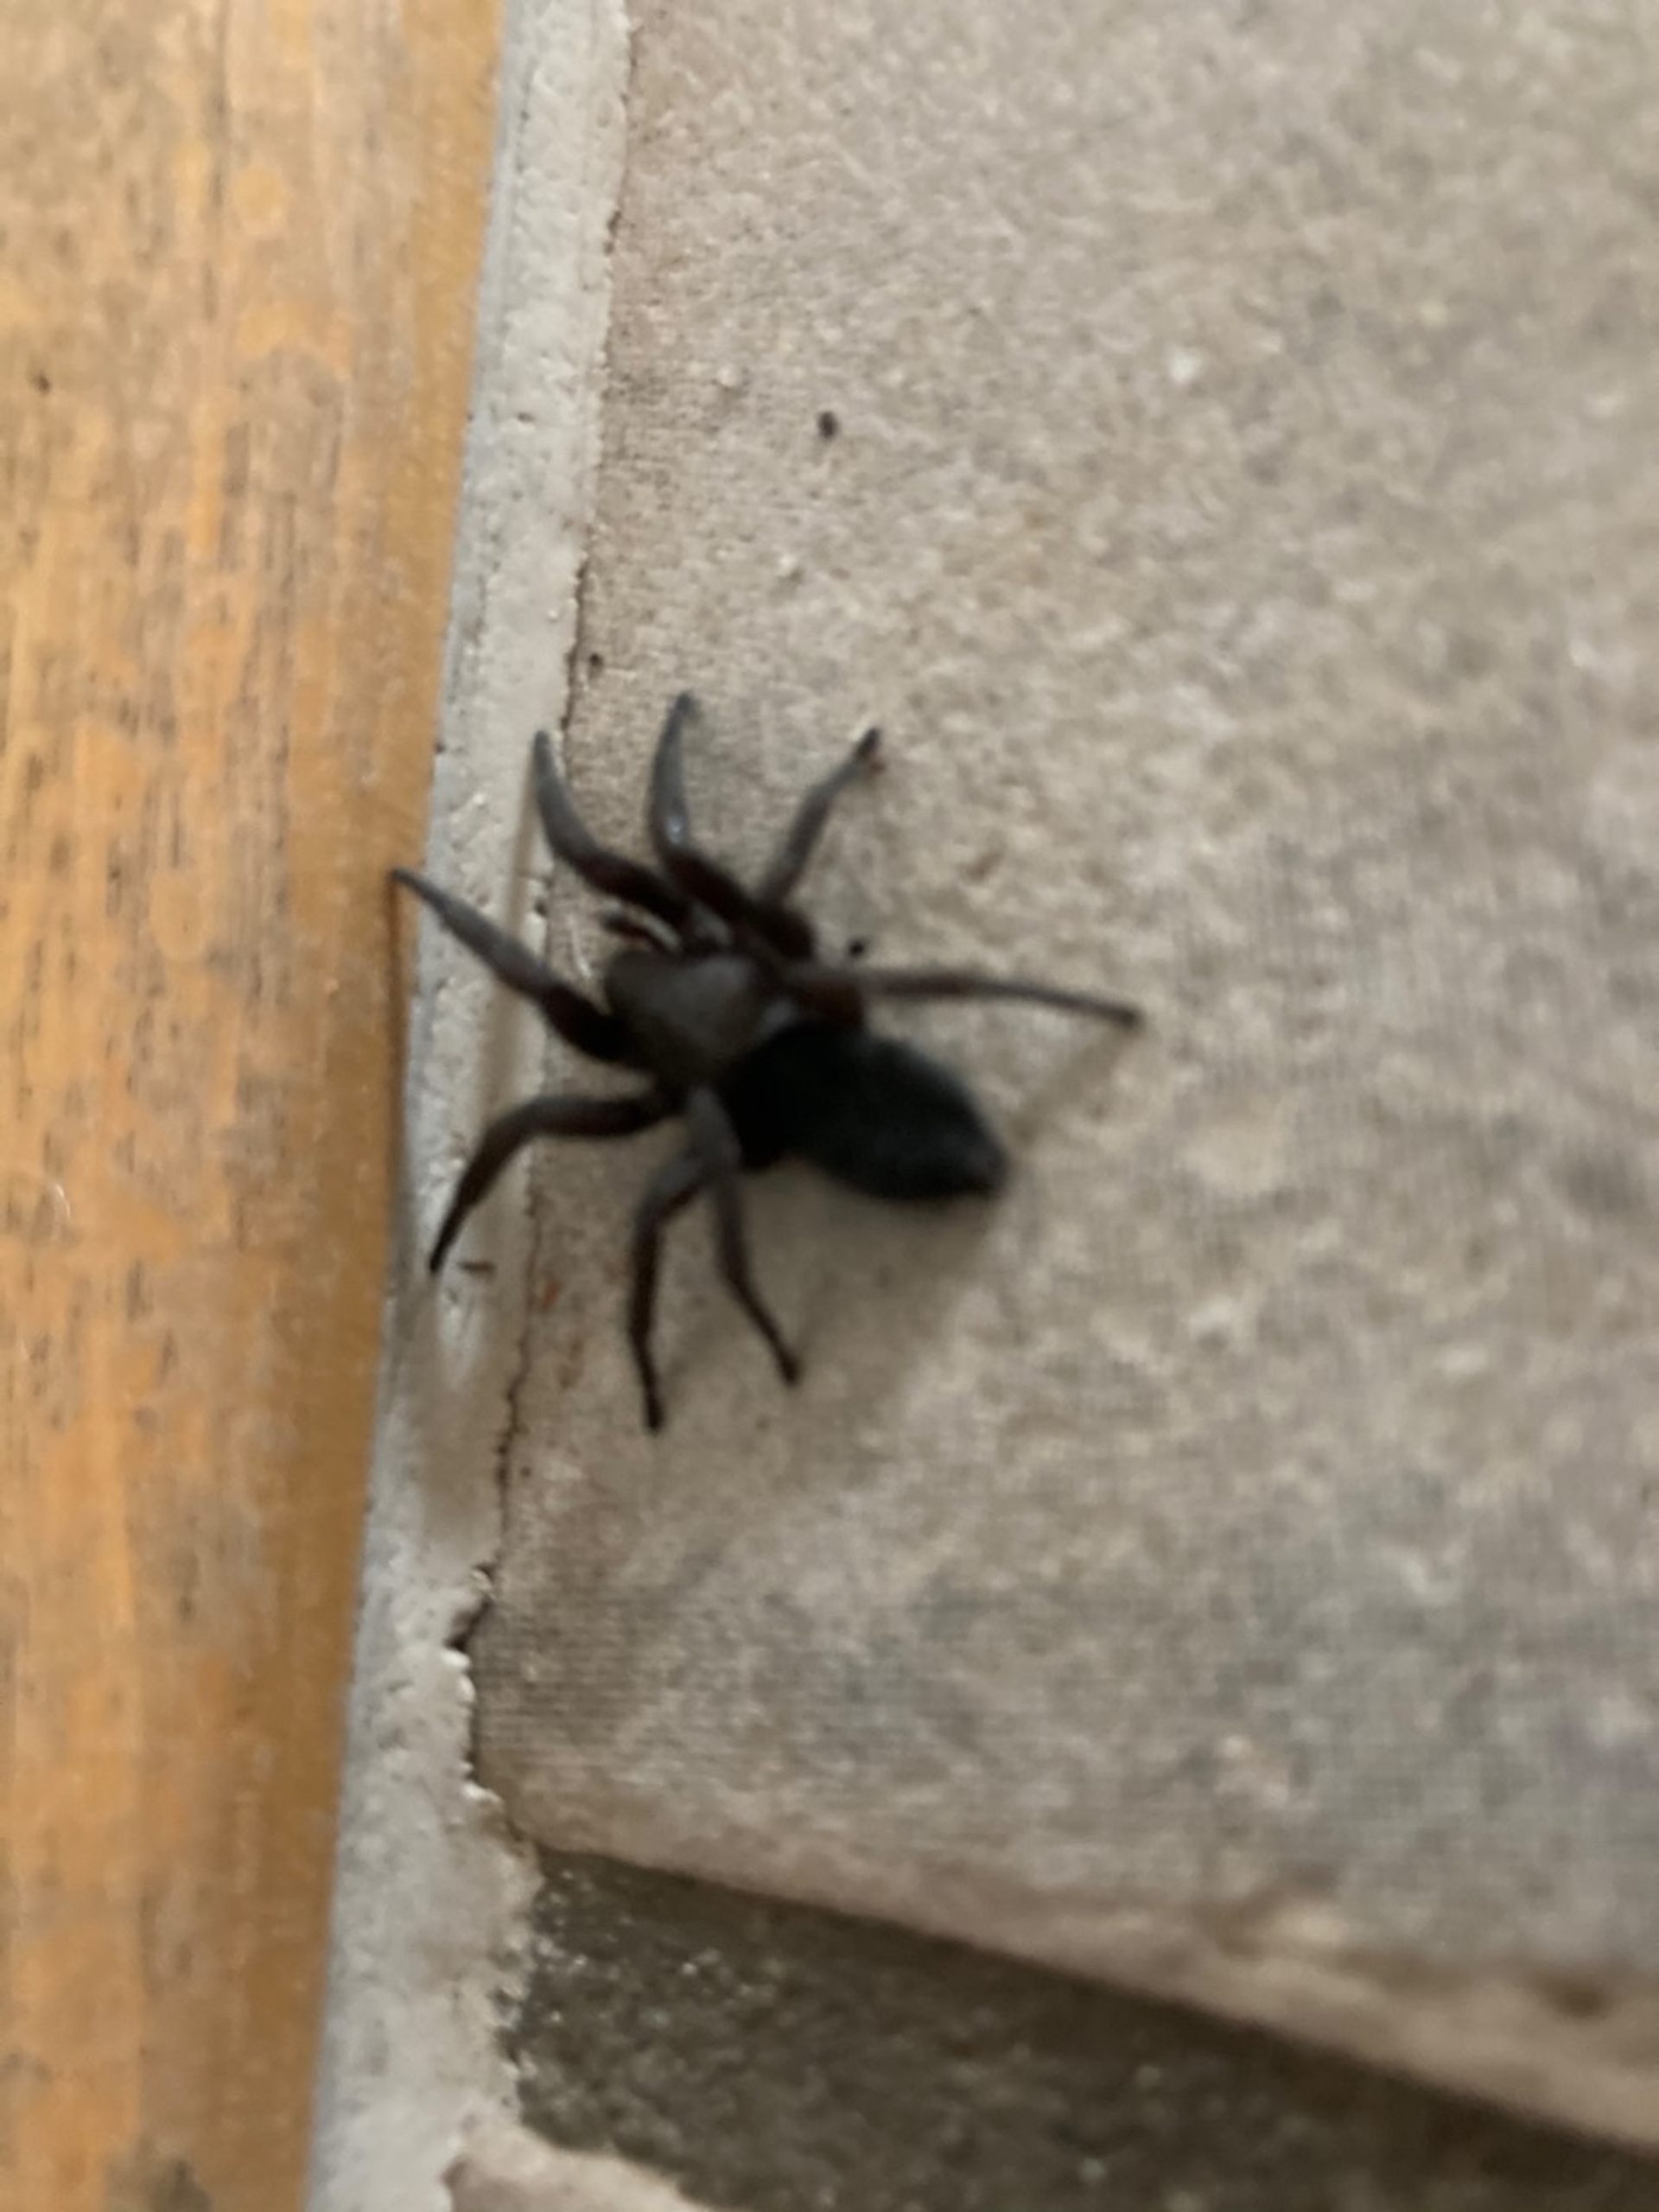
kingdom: Animalia
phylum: Arthropoda
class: Arachnida
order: Araneae
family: Gnaphosidae
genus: Scotophaeus
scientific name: Scotophaeus
